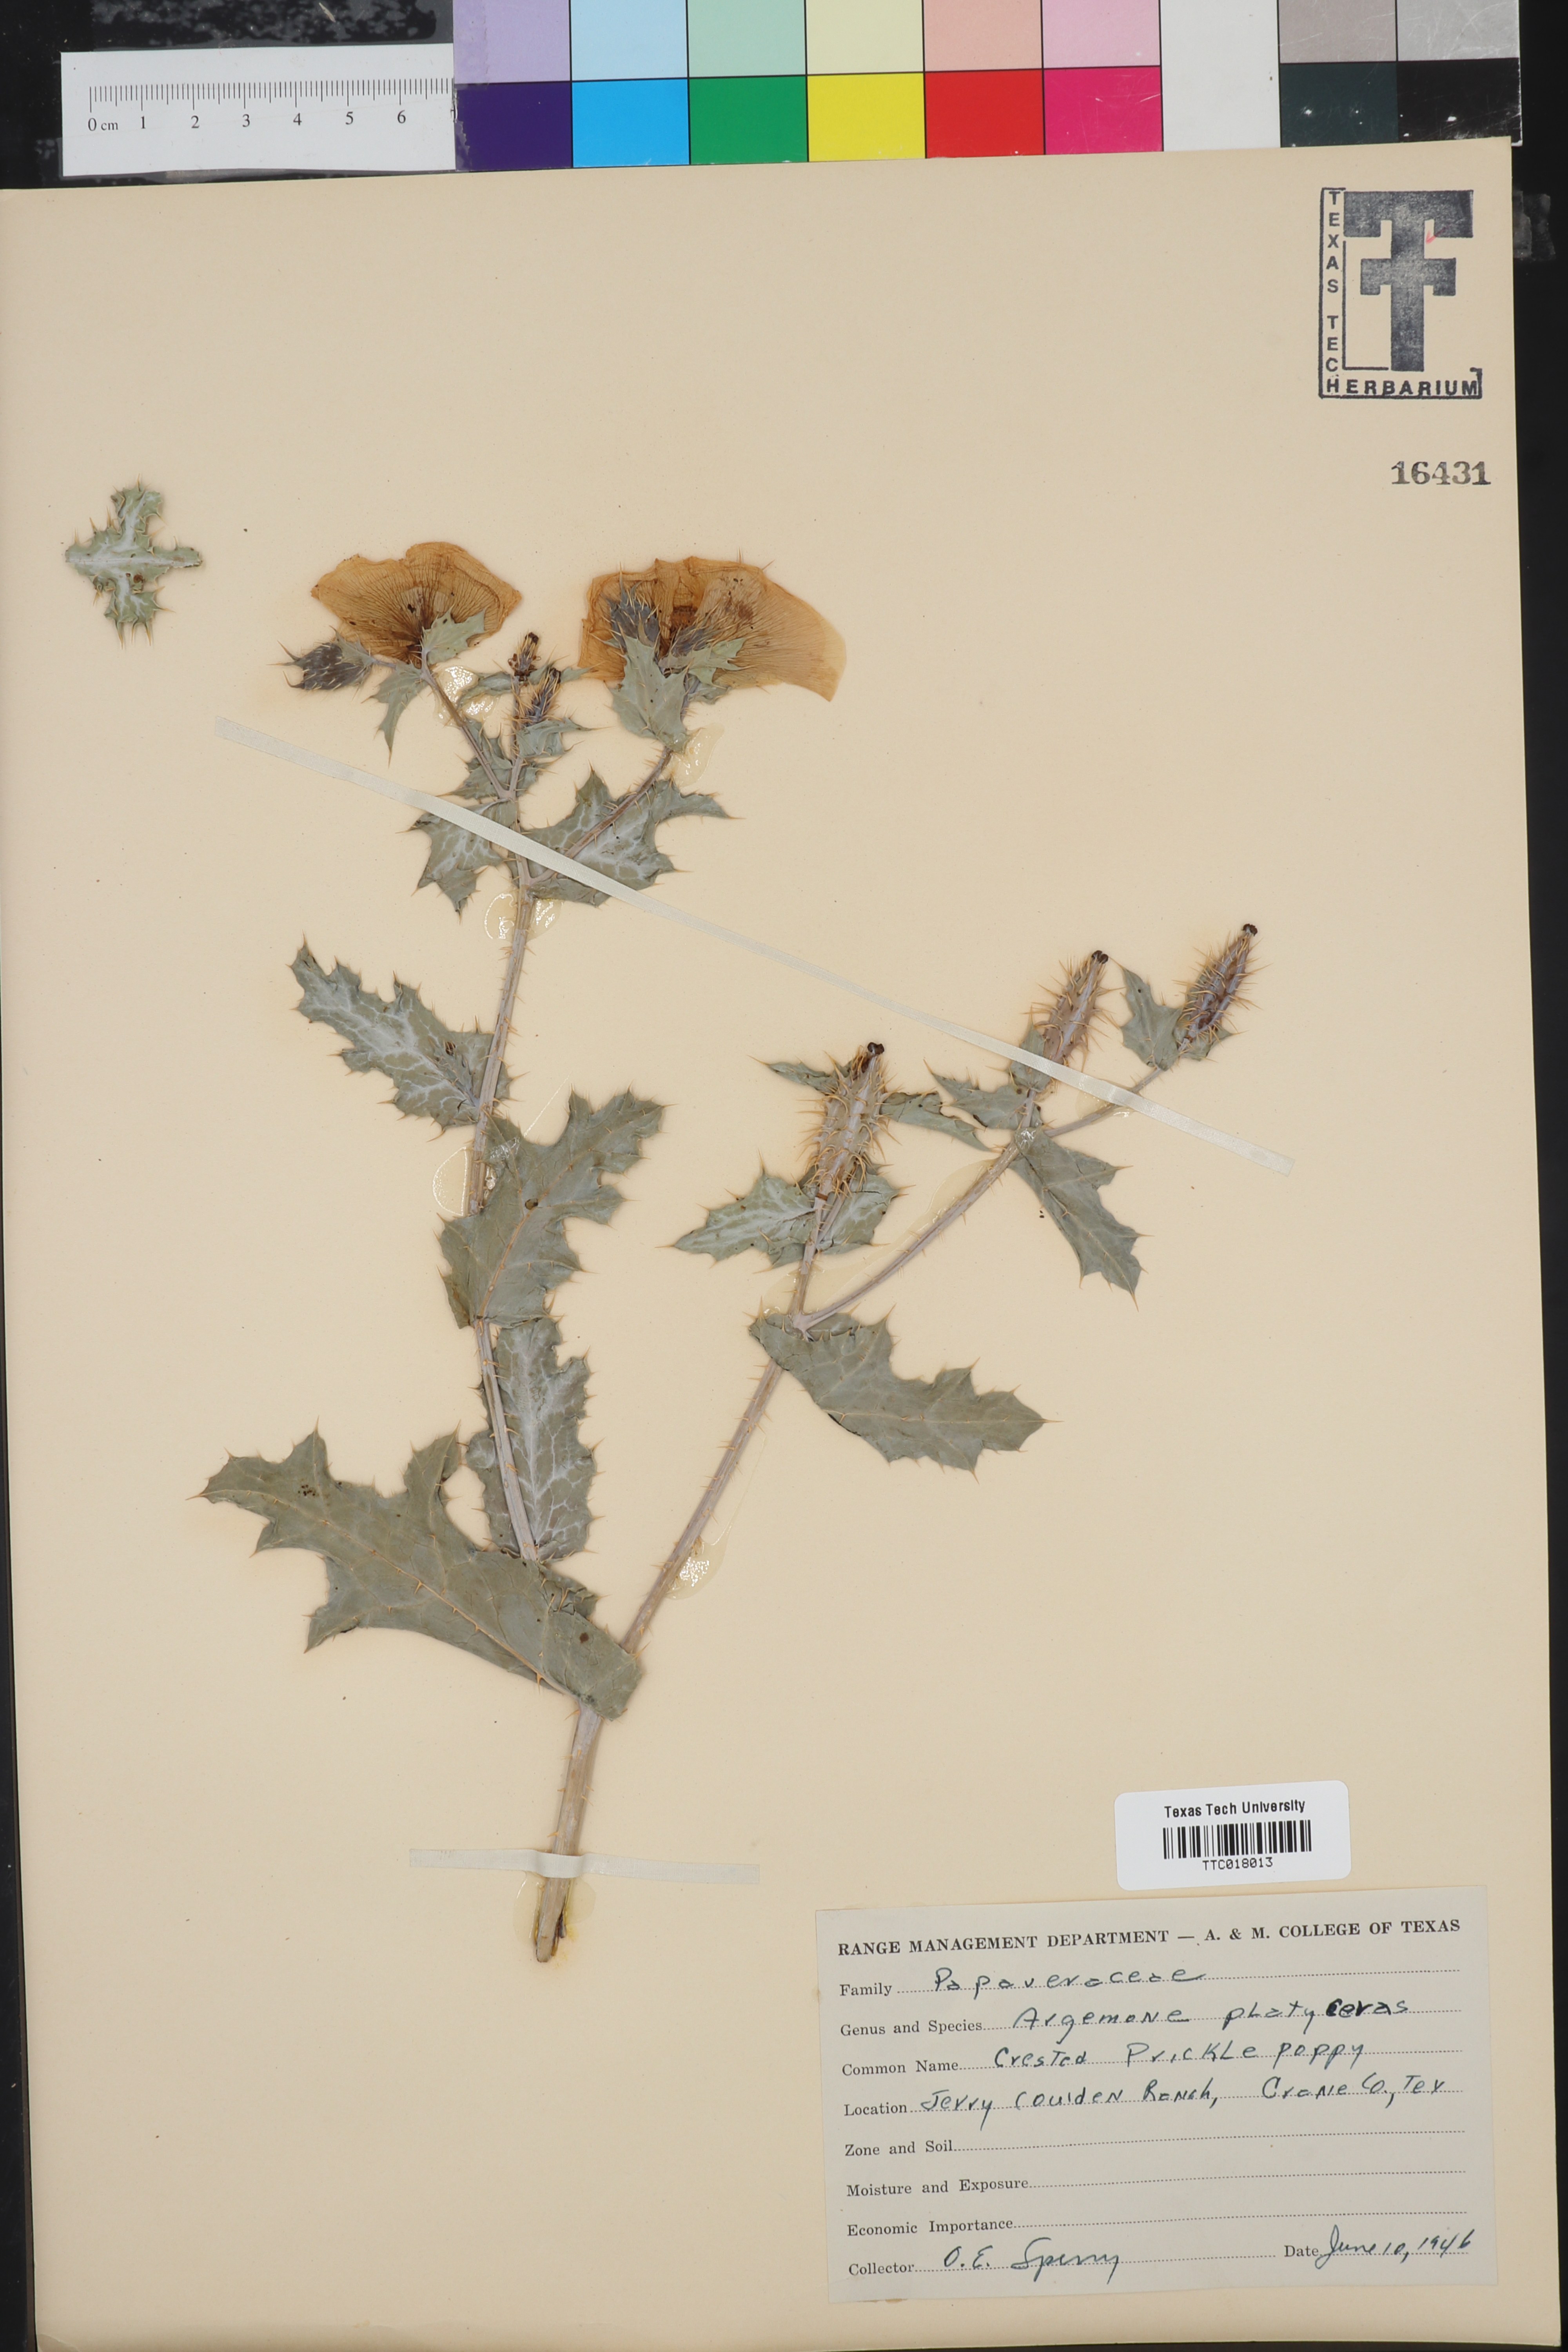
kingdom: Plantae
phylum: Tracheophyta
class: Magnoliopsida
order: Ranunculales
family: Papaveraceae
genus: Argemone
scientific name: Argemone platyceras
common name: Crested-poppy
